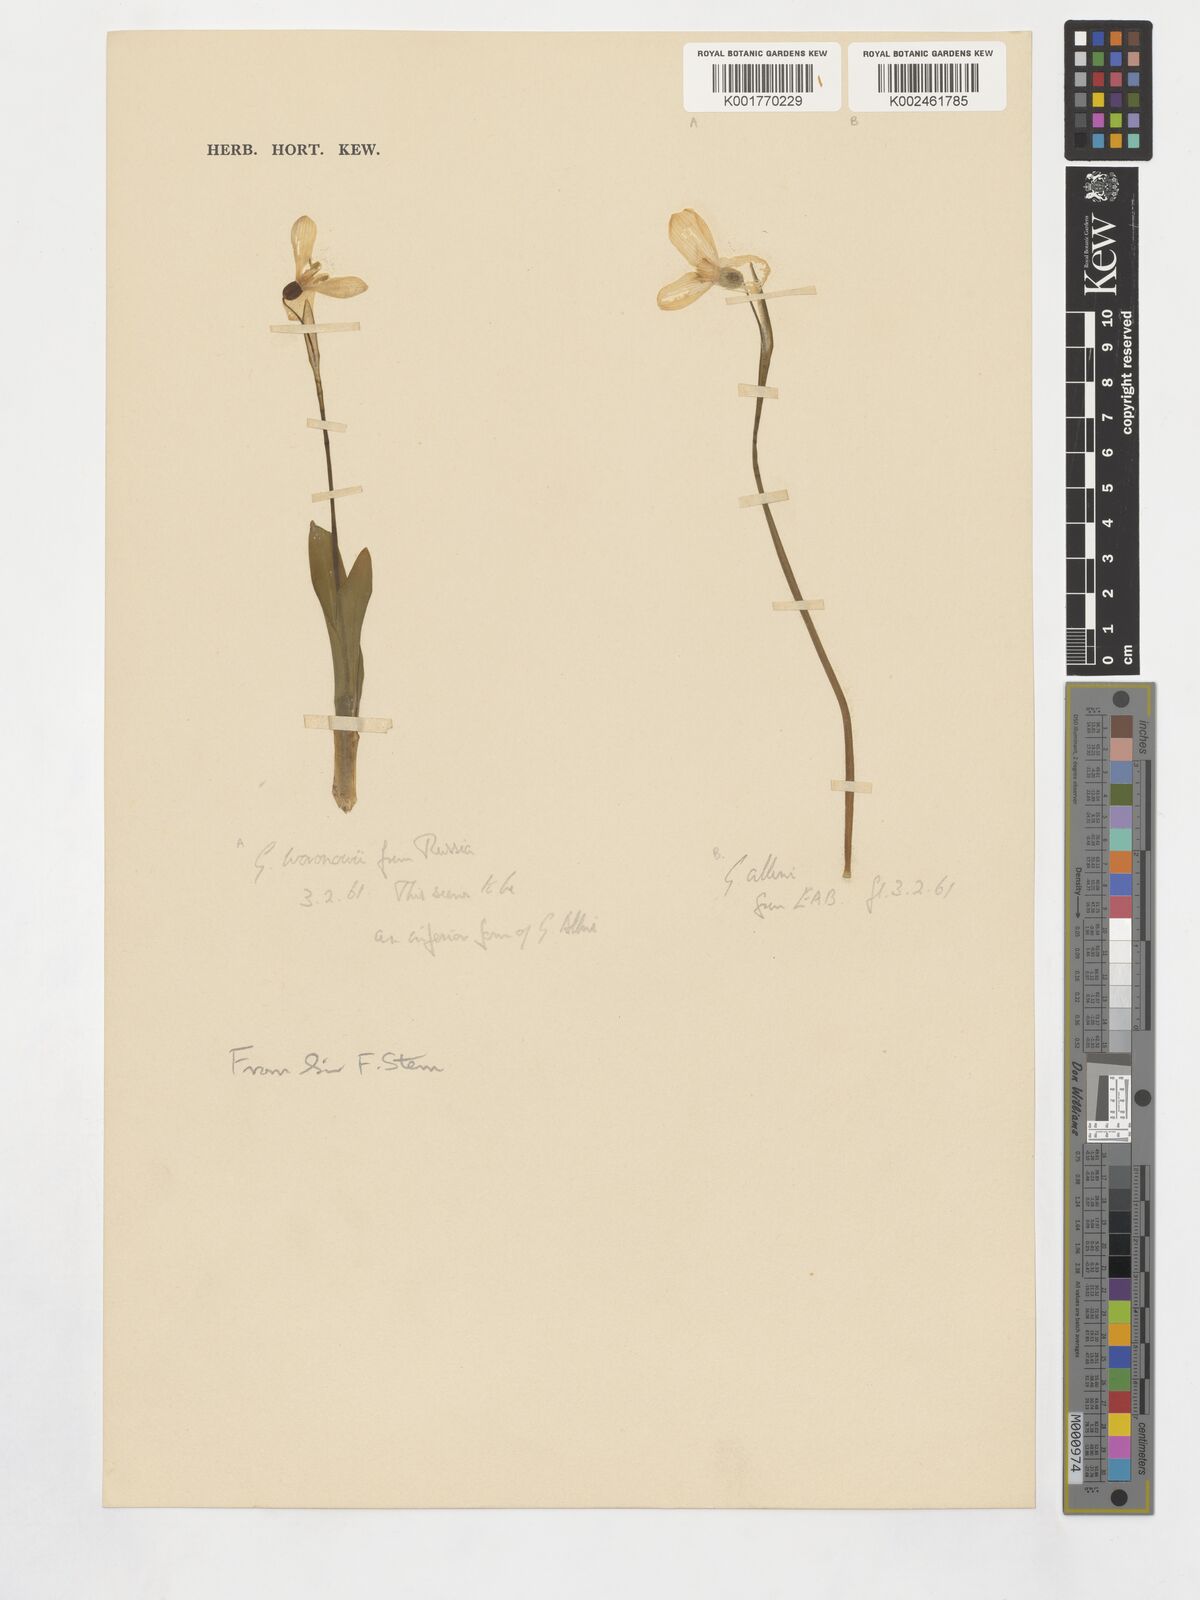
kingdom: Plantae
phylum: Tracheophyta
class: Liliopsida
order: Asparagales
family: Amaryllidaceae
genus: Galanthus
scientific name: Galanthus woronowii
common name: Green snowdrop
